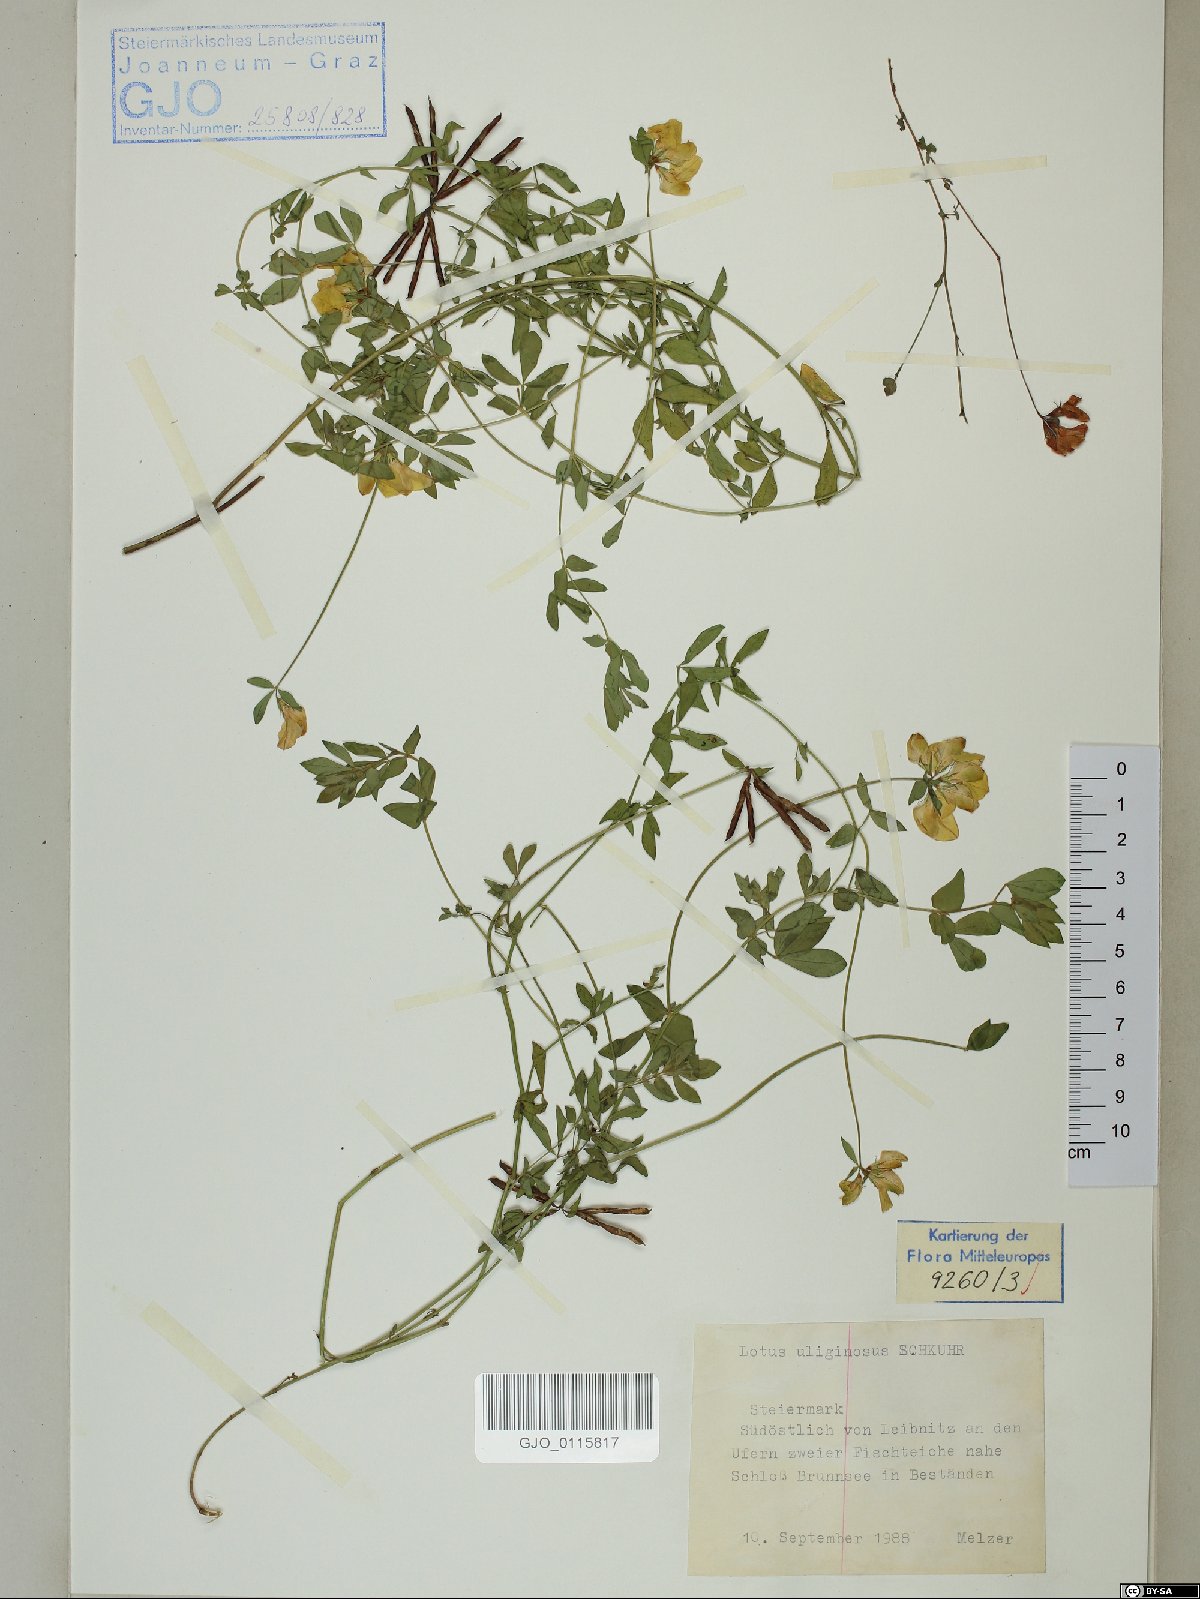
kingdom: Plantae
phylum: Tracheophyta
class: Magnoliopsida
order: Fabales
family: Fabaceae
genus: Lotus
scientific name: Lotus pedunculatus
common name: Greater birdsfoot-trefoil
